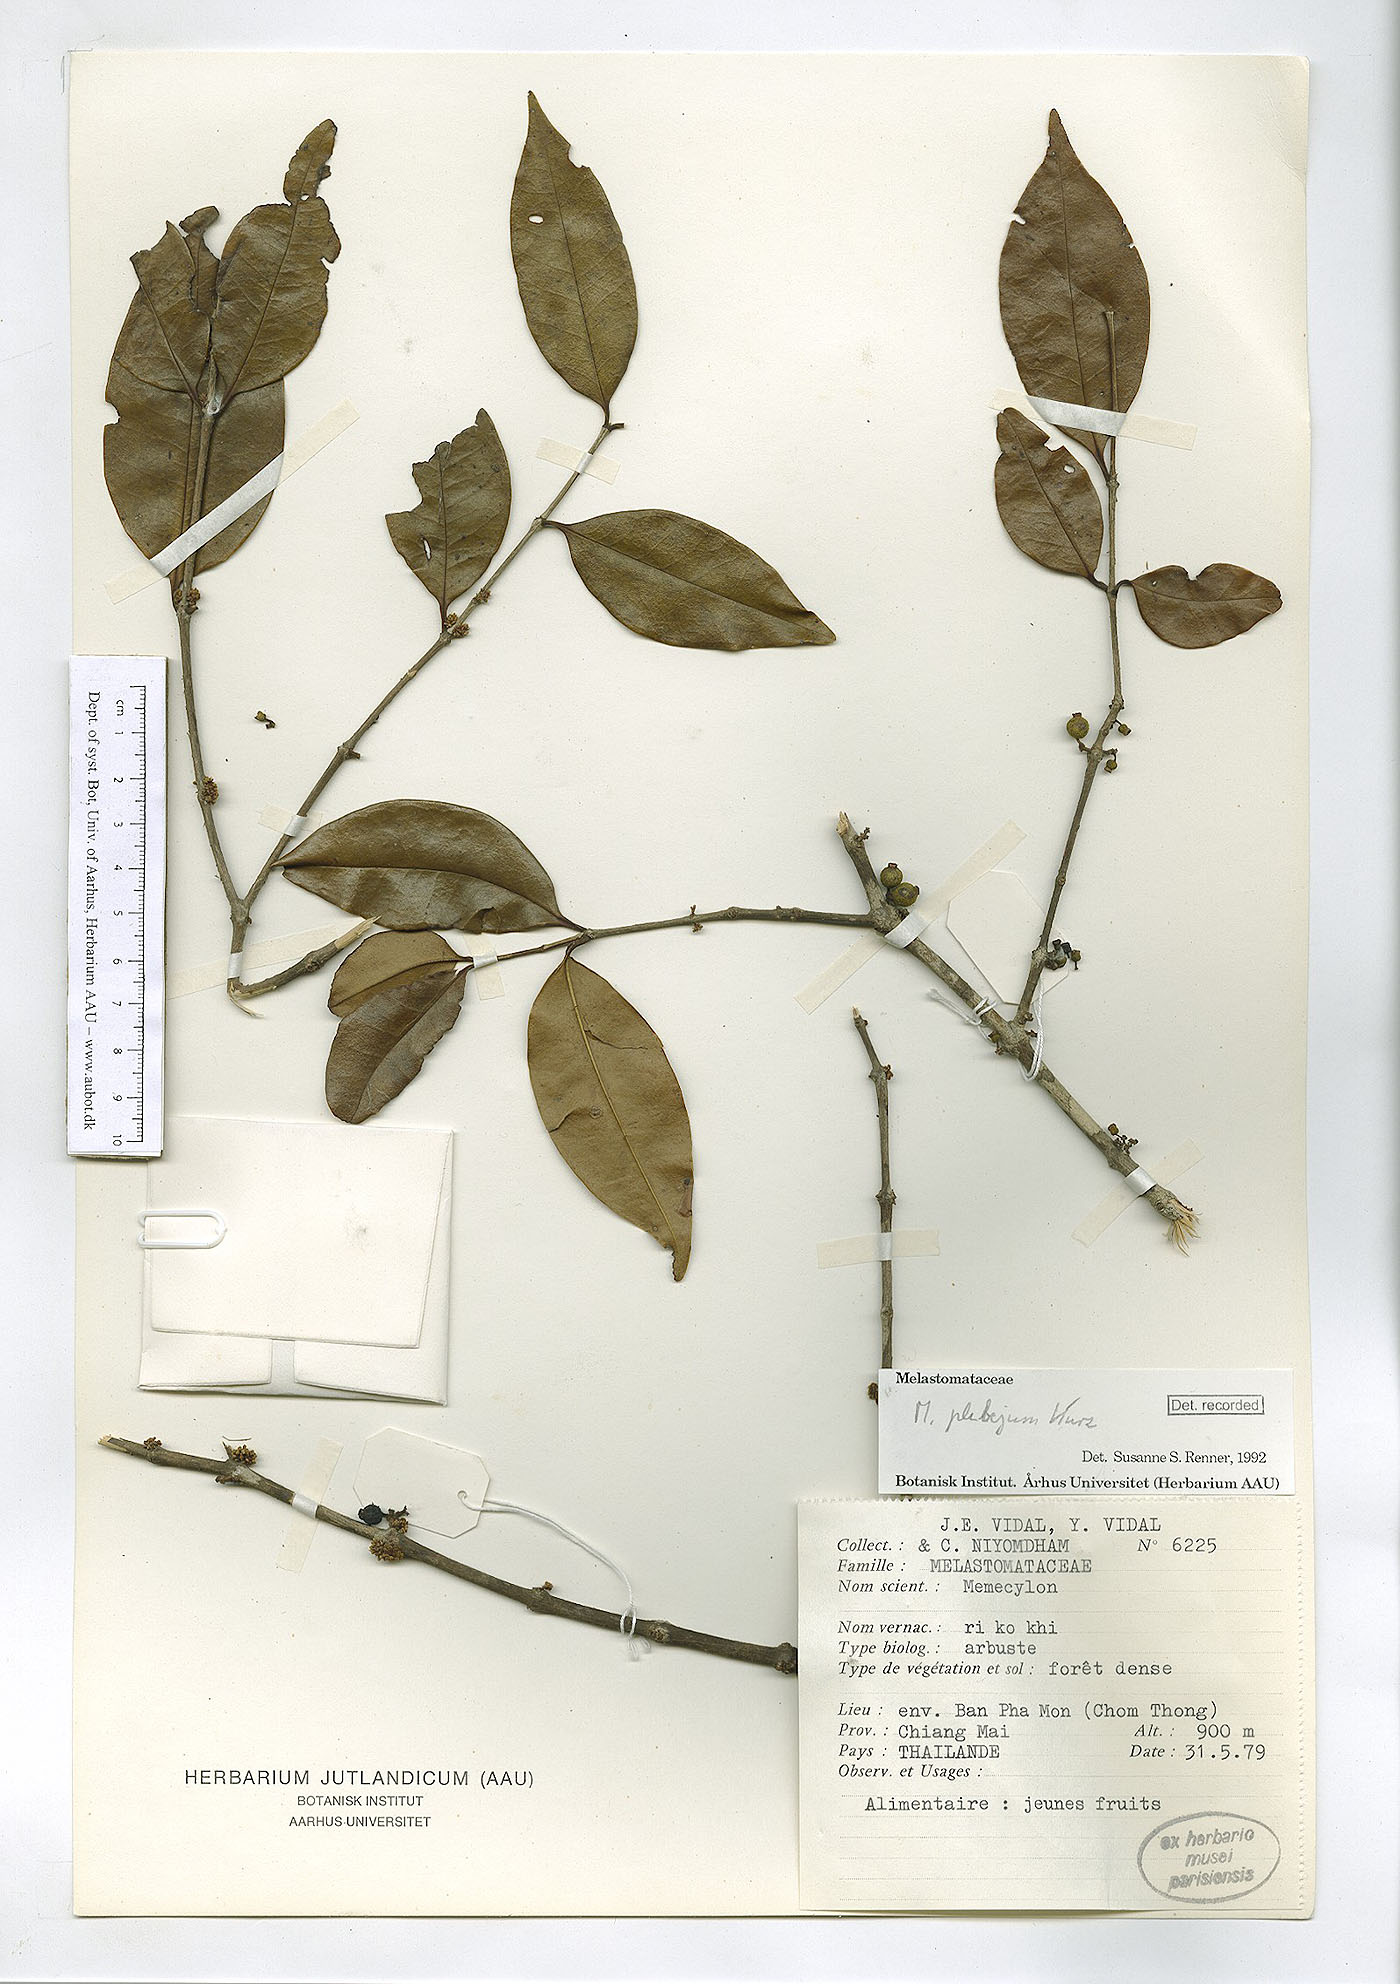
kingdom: Plantae
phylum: Tracheophyta
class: Magnoliopsida
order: Myrtales
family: Melastomataceae
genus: Memecylon
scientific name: Memecylon plebejum
